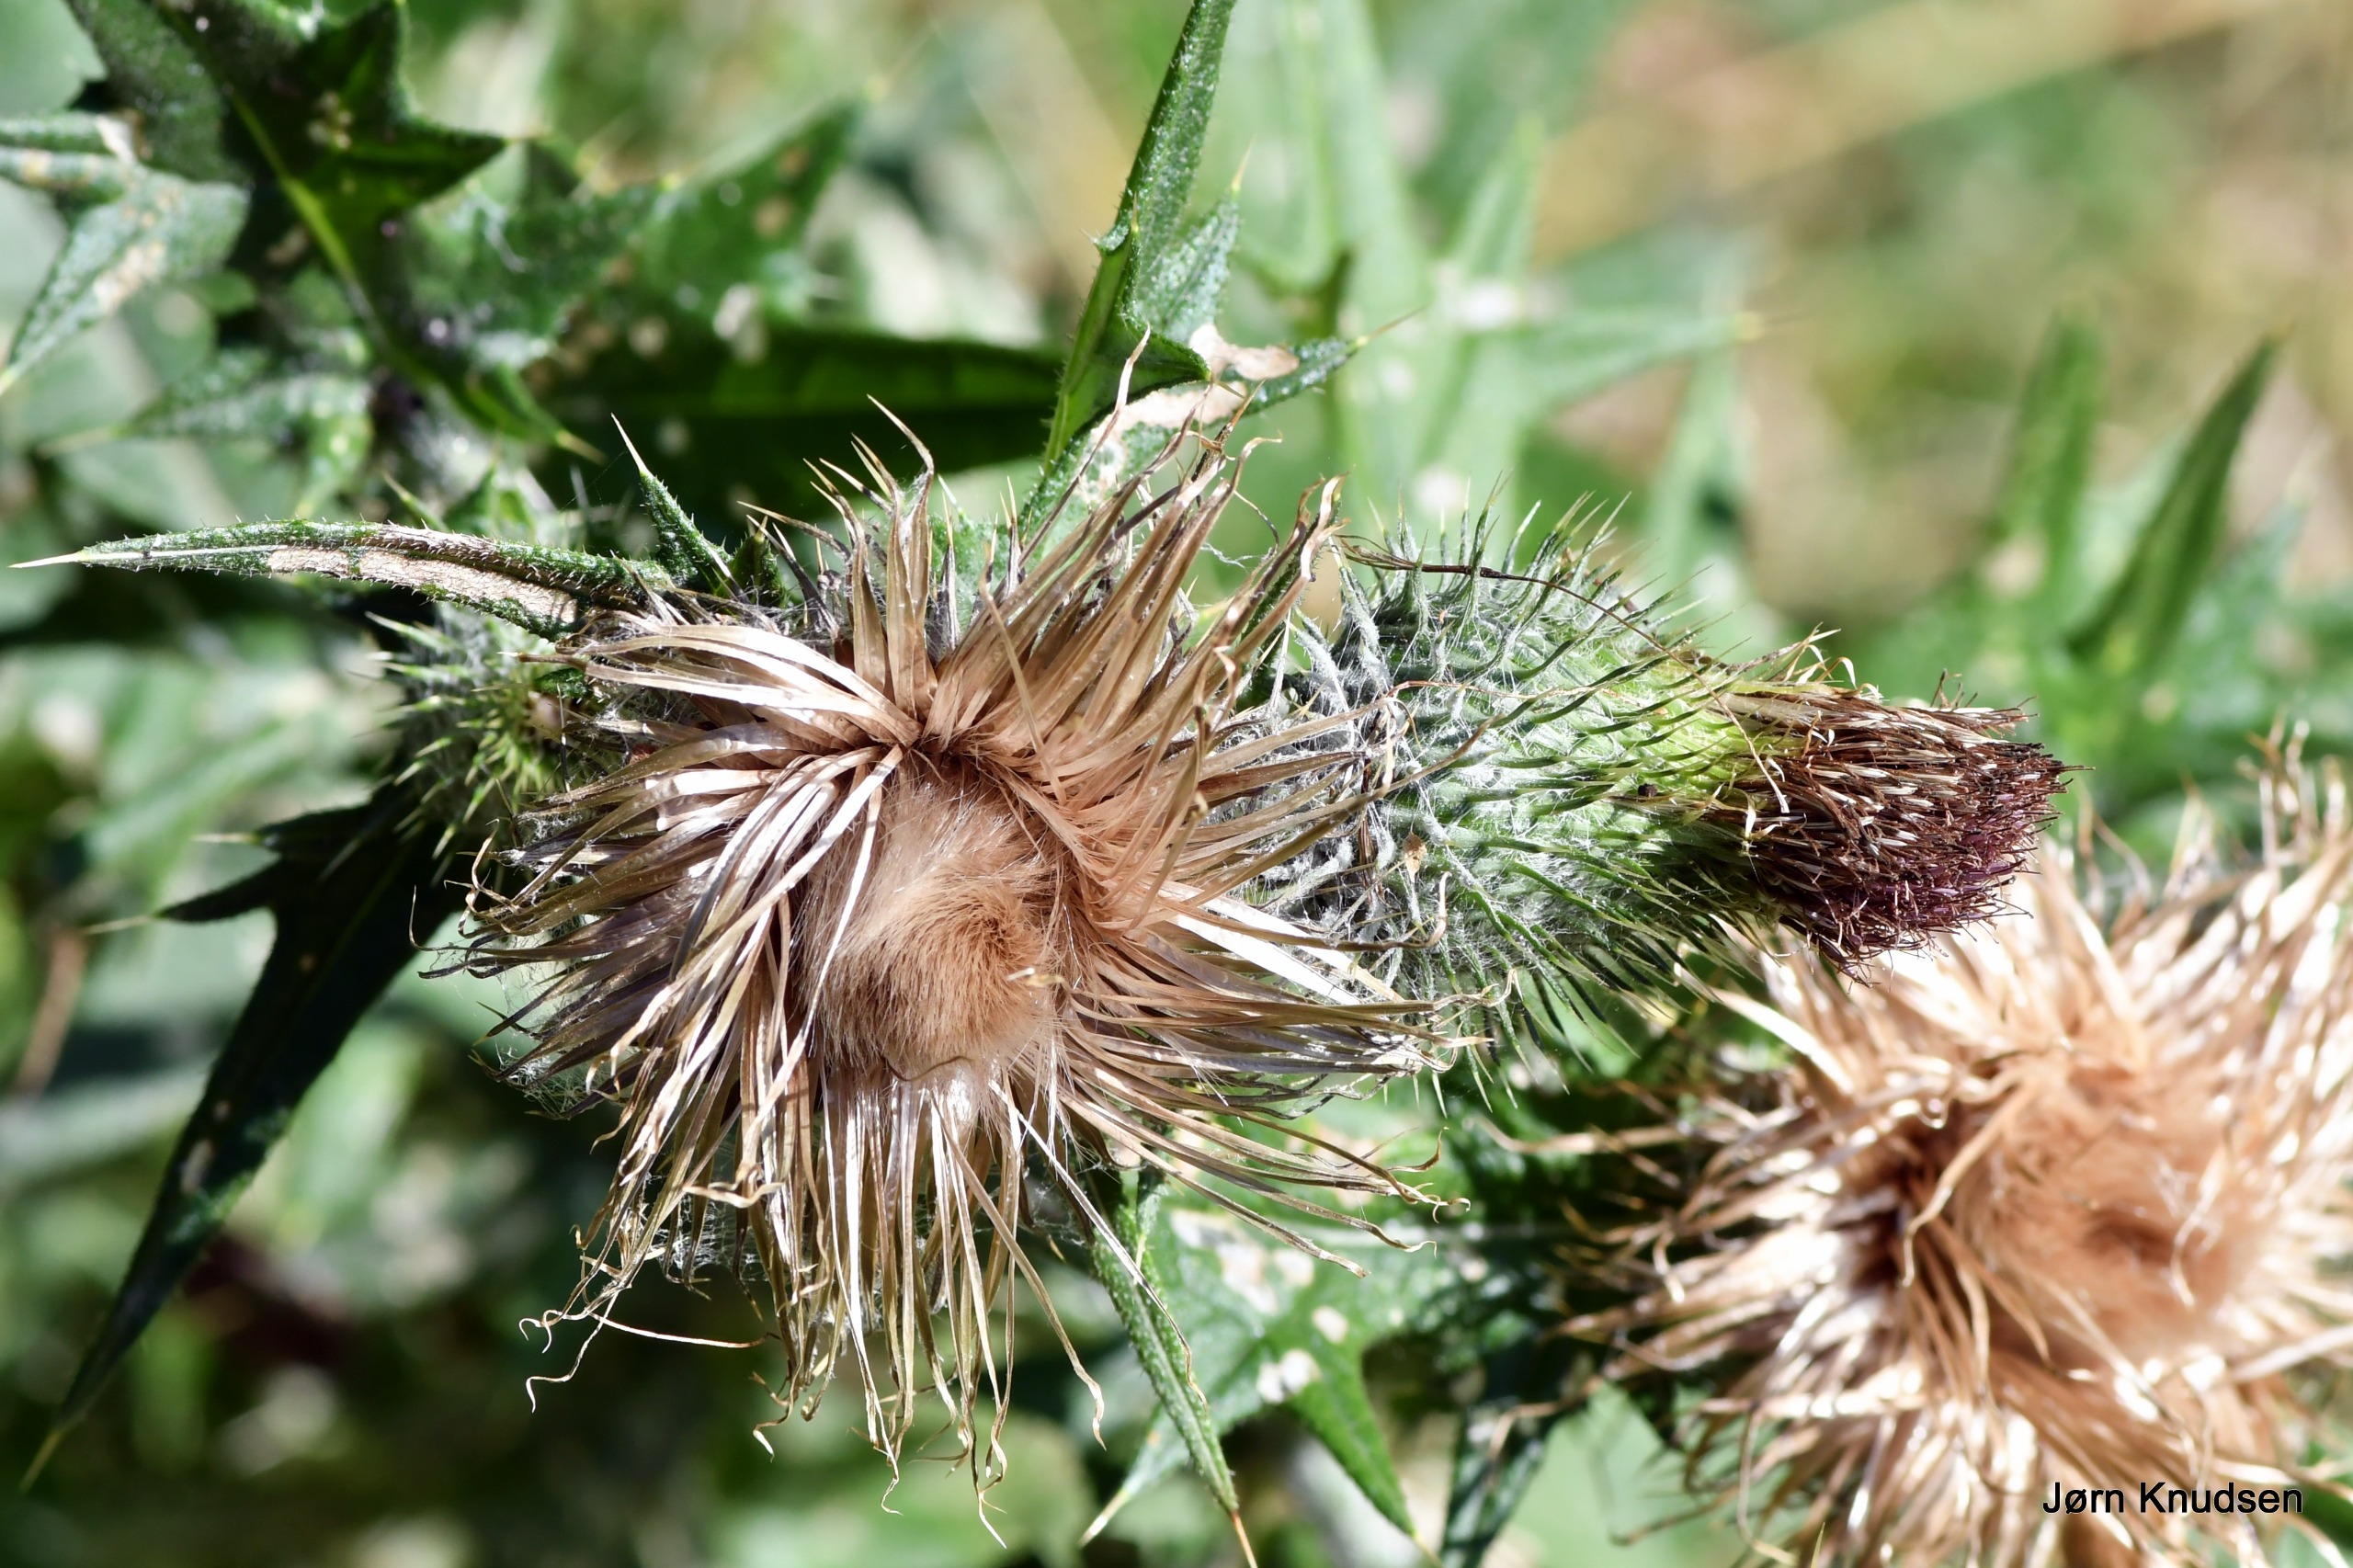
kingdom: Plantae
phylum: Tracheophyta
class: Magnoliopsida
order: Asterales
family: Asteraceae
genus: Cirsium
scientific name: Cirsium vulgare
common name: Horse-tidsel
